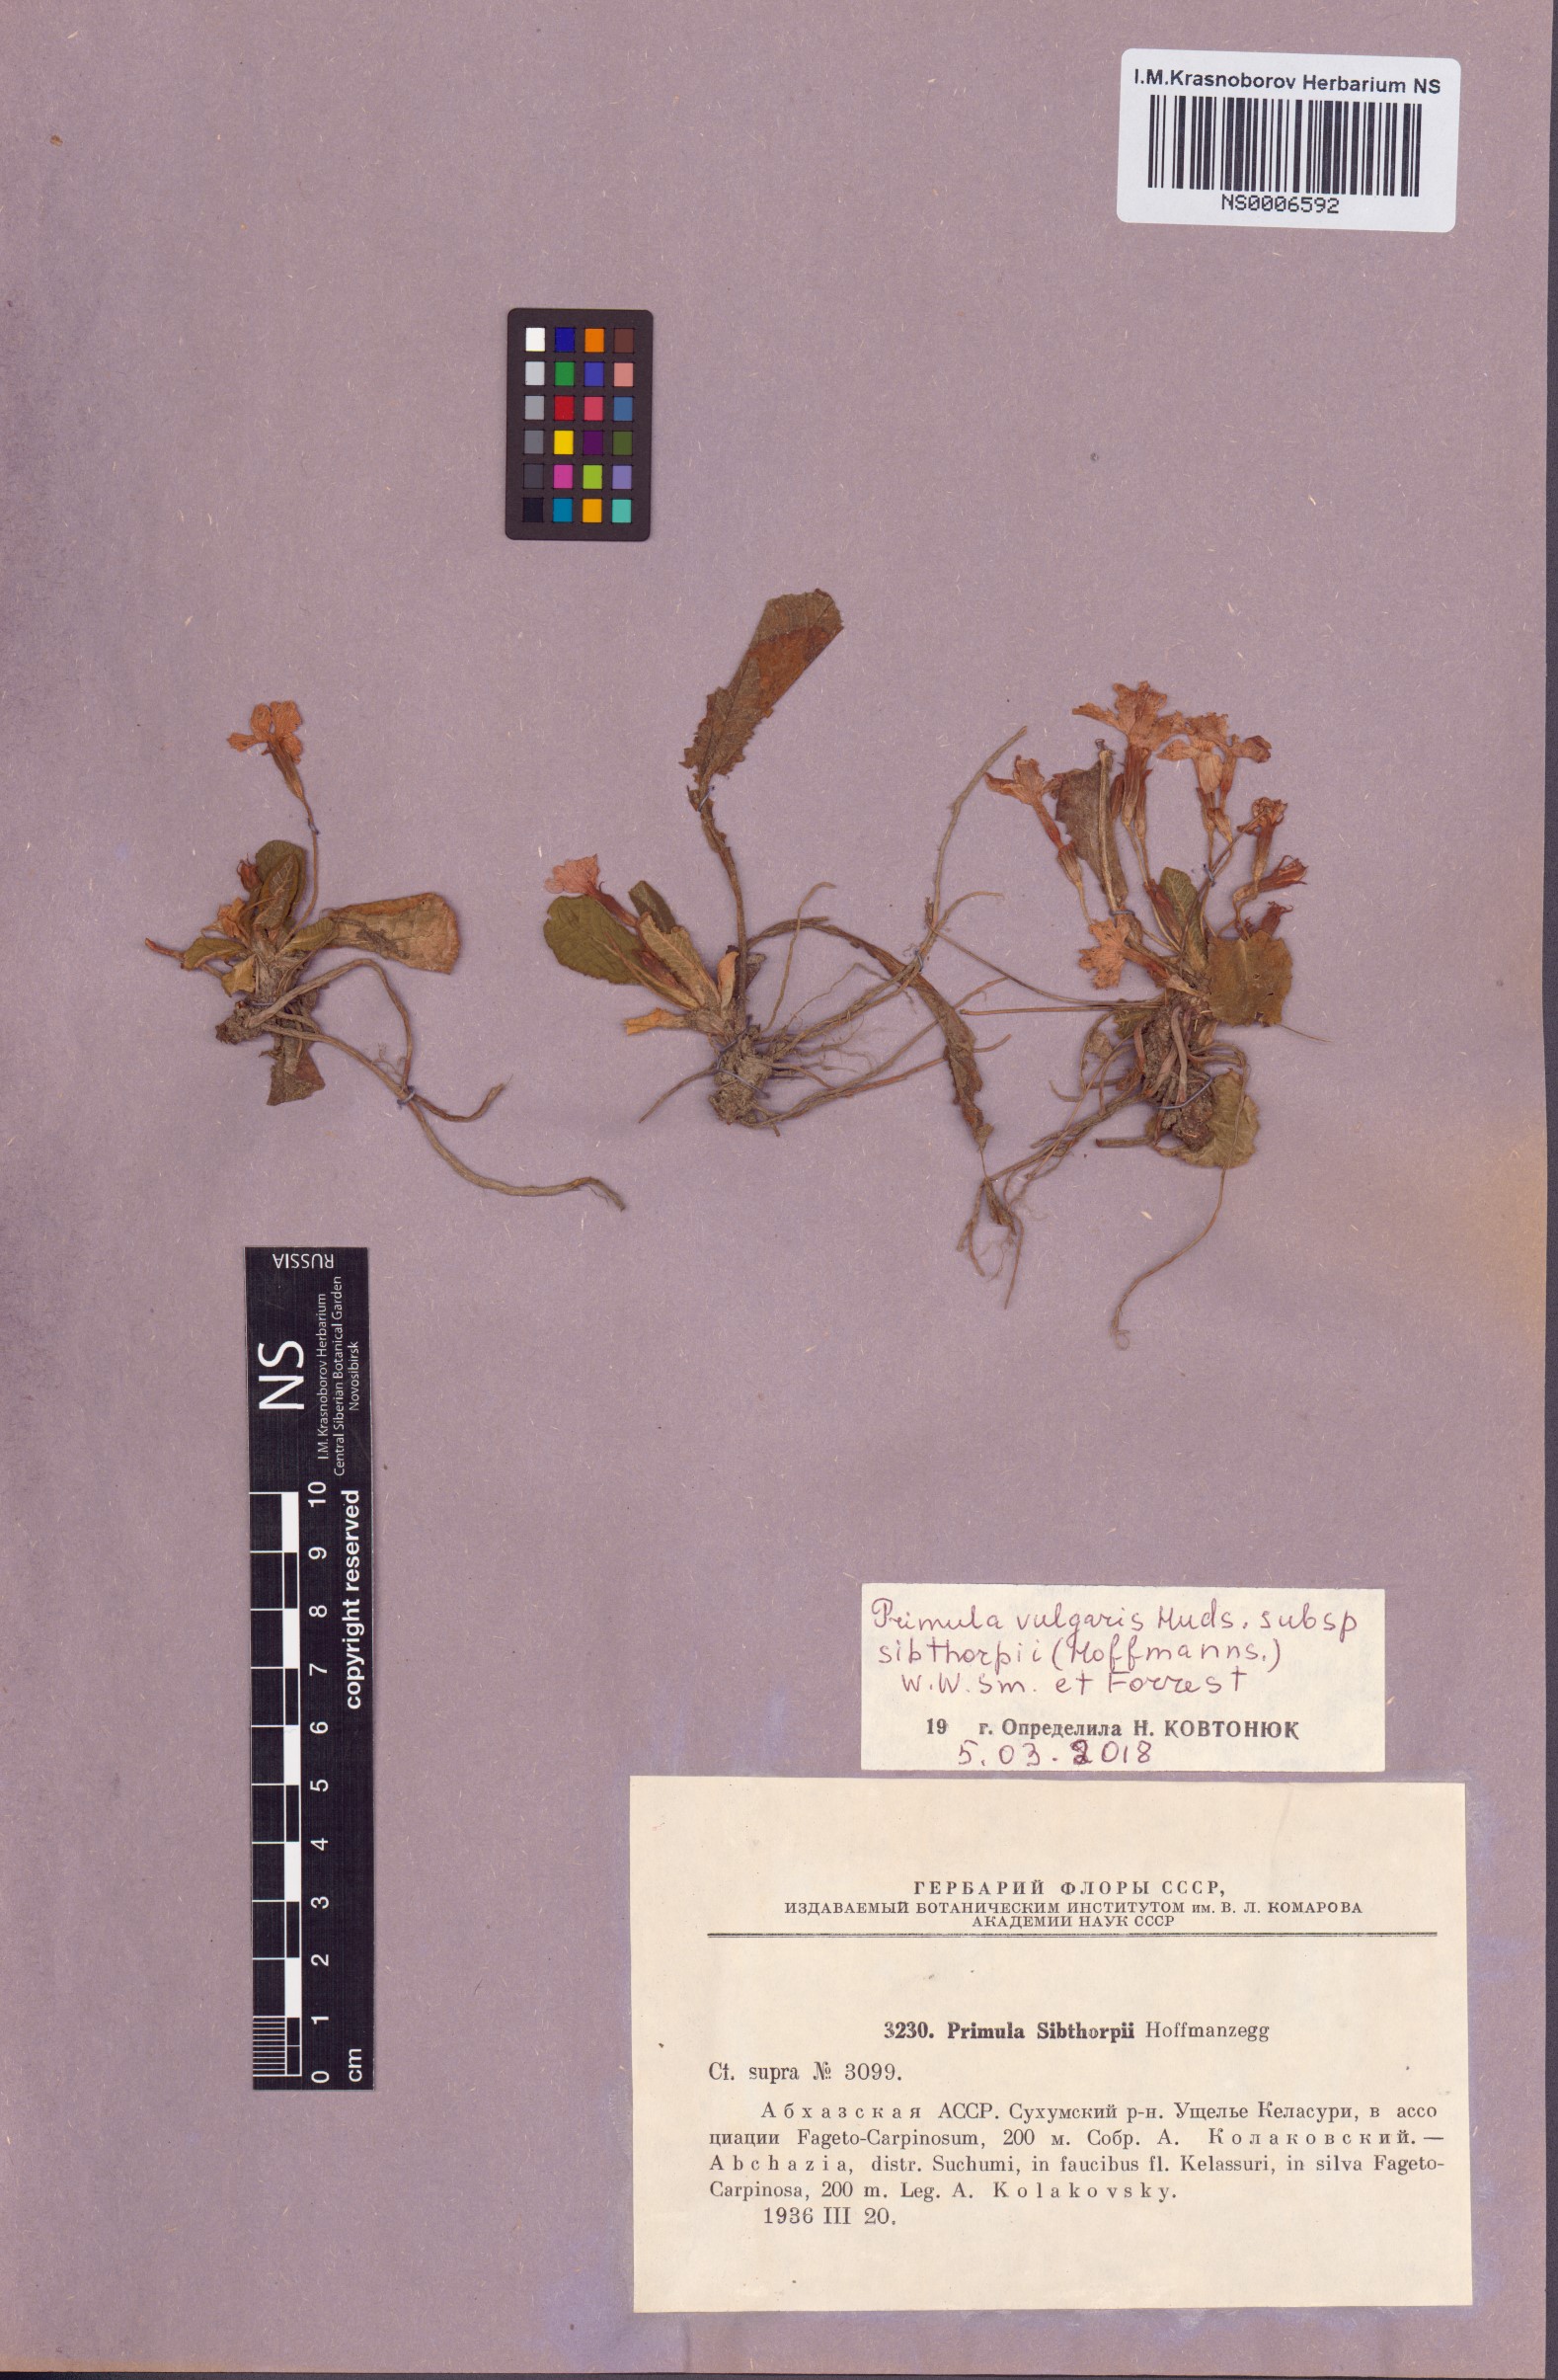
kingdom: Plantae
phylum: Tracheophyta
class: Magnoliopsida
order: Ericales
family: Primulaceae
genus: Primula
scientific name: Primula vulgaris
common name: Primrose
